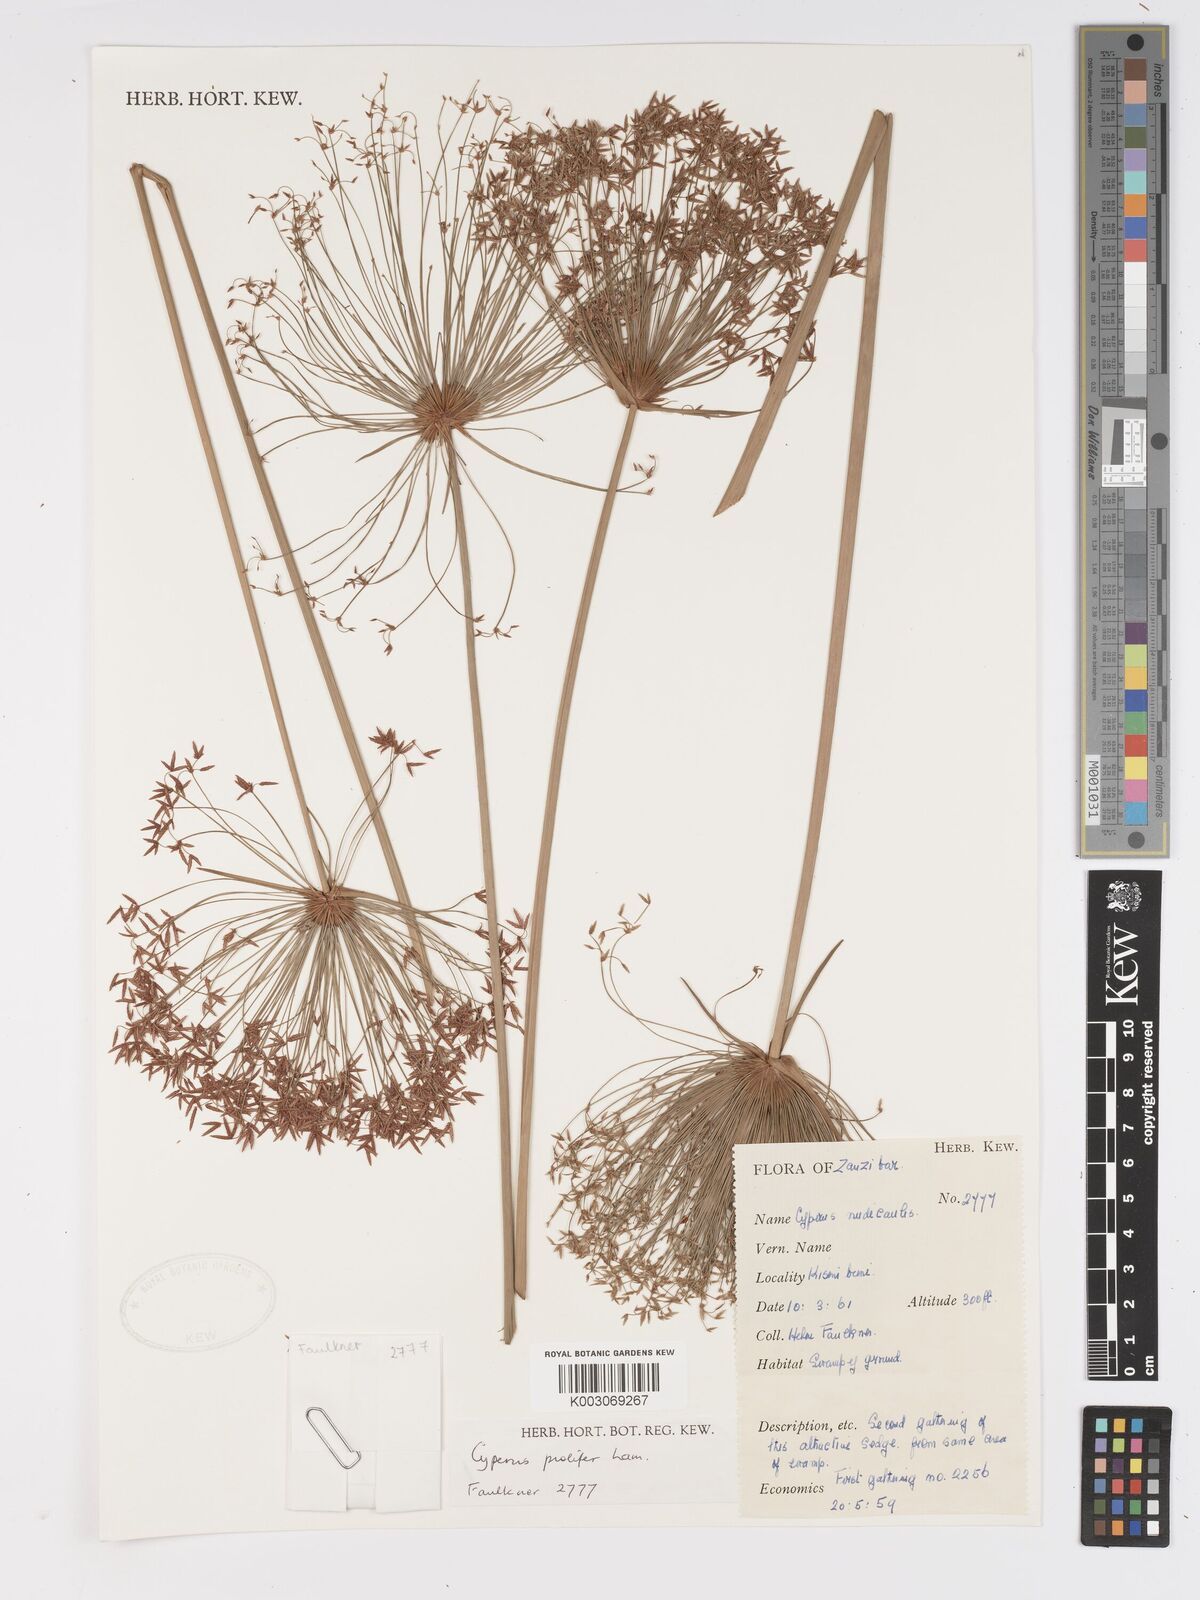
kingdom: Plantae
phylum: Tracheophyta
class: Liliopsida
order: Poales
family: Cyperaceae
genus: Cyperus
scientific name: Cyperus prolifer
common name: Miniature flatsedge
